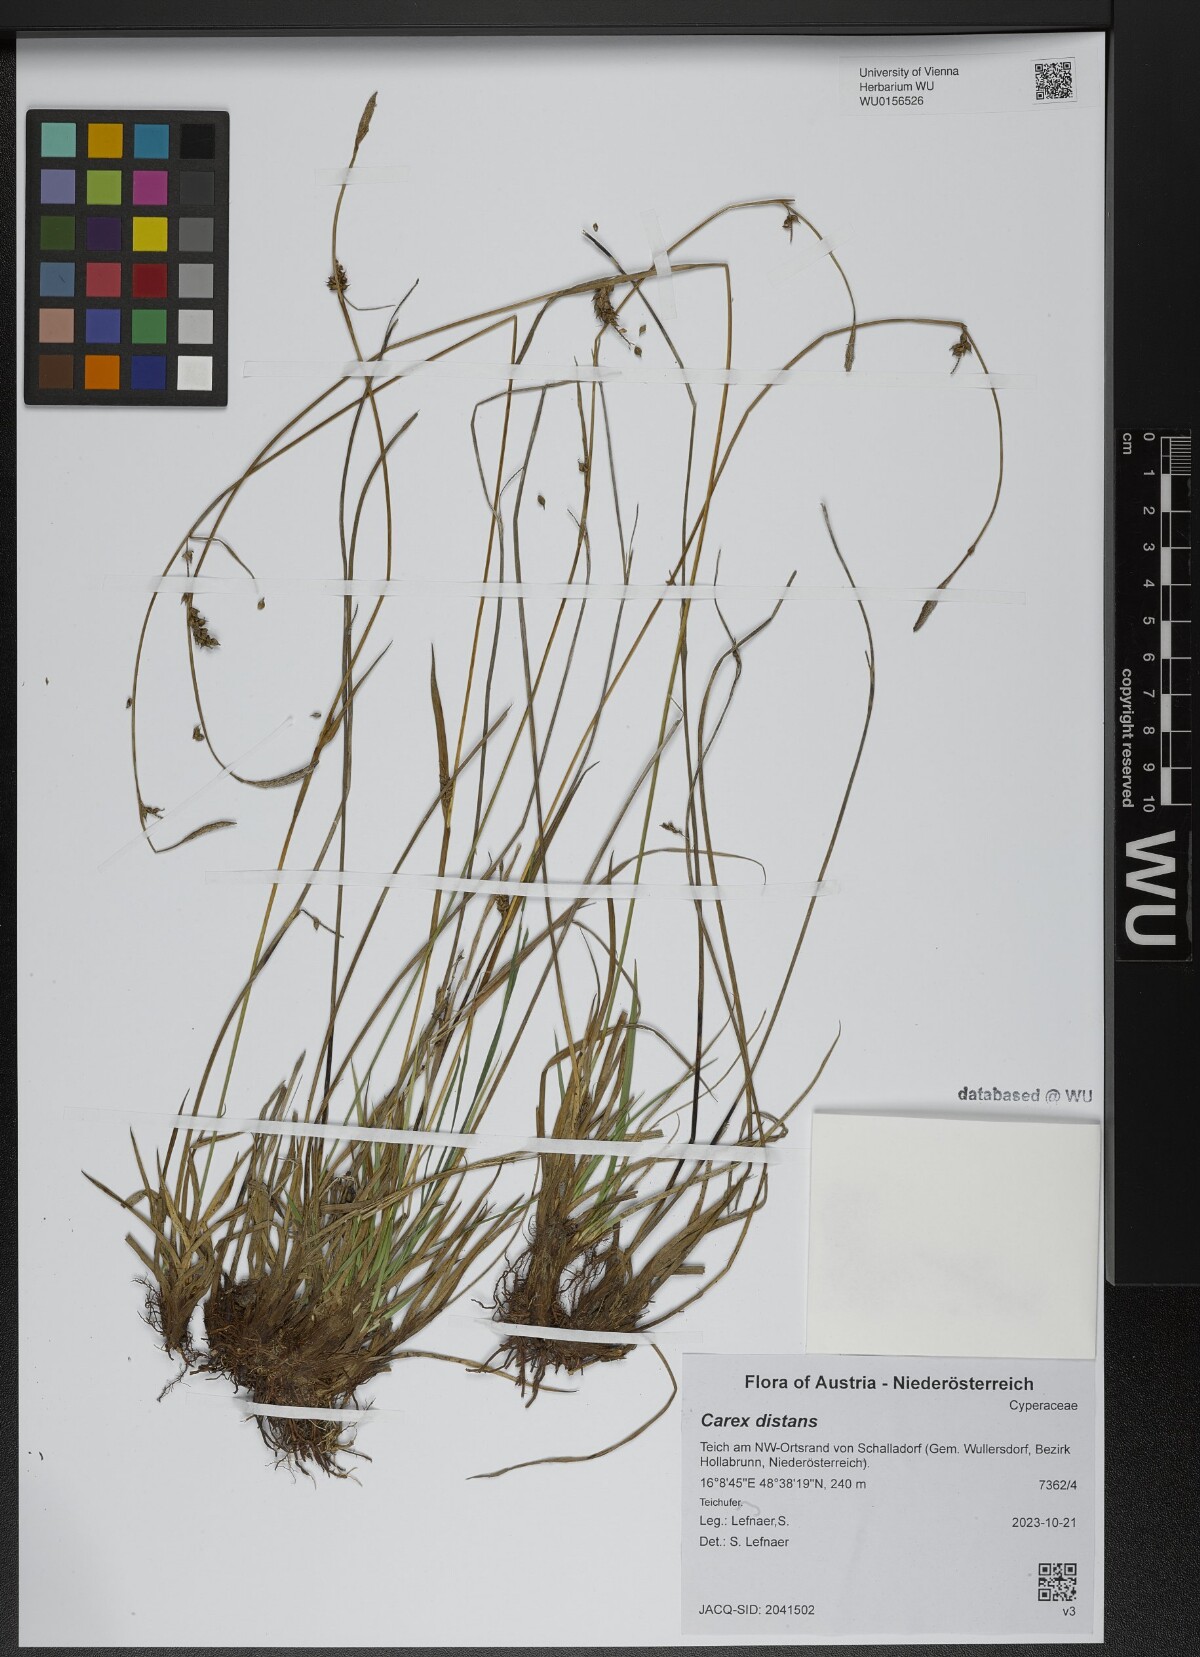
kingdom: Plantae
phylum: Tracheophyta
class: Liliopsida
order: Poales
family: Cyperaceae
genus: Carex
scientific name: Carex distans
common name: Distant sedge
